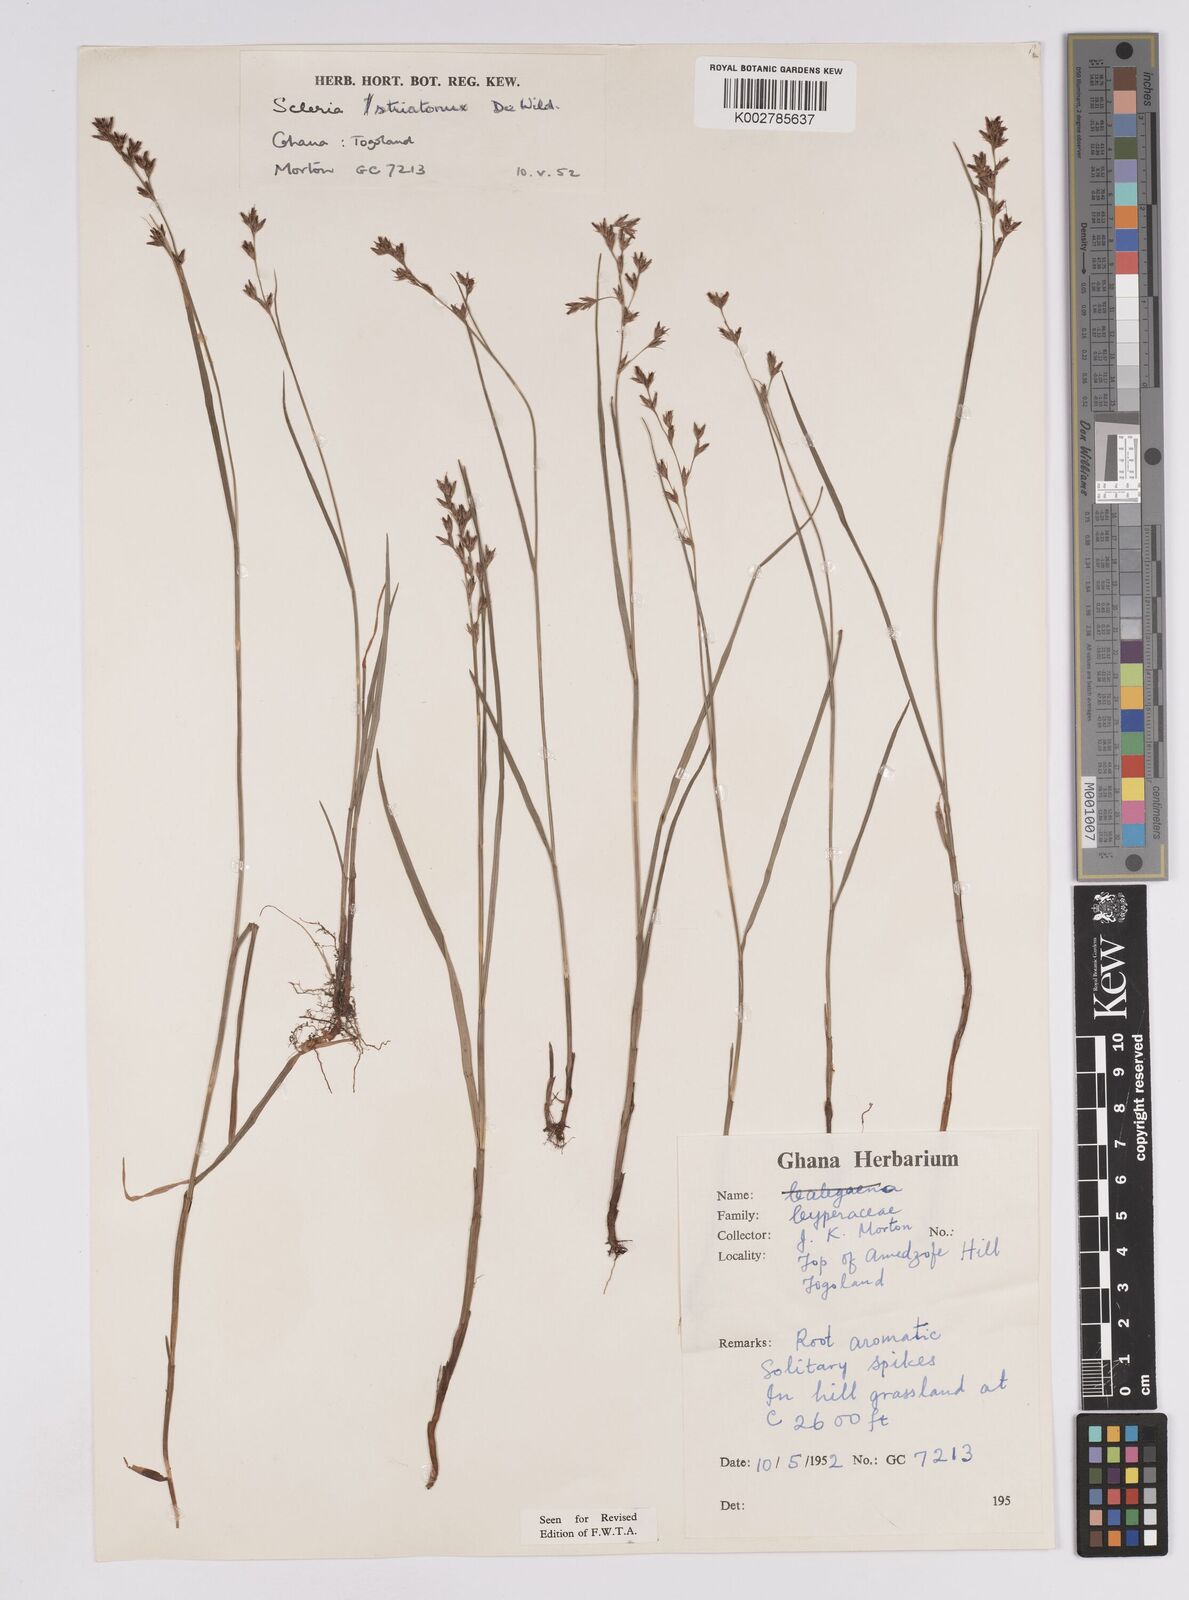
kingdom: Plantae
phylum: Tracheophyta
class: Liliopsida
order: Poales
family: Cyperaceae
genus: Scleria
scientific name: Scleria woodii
